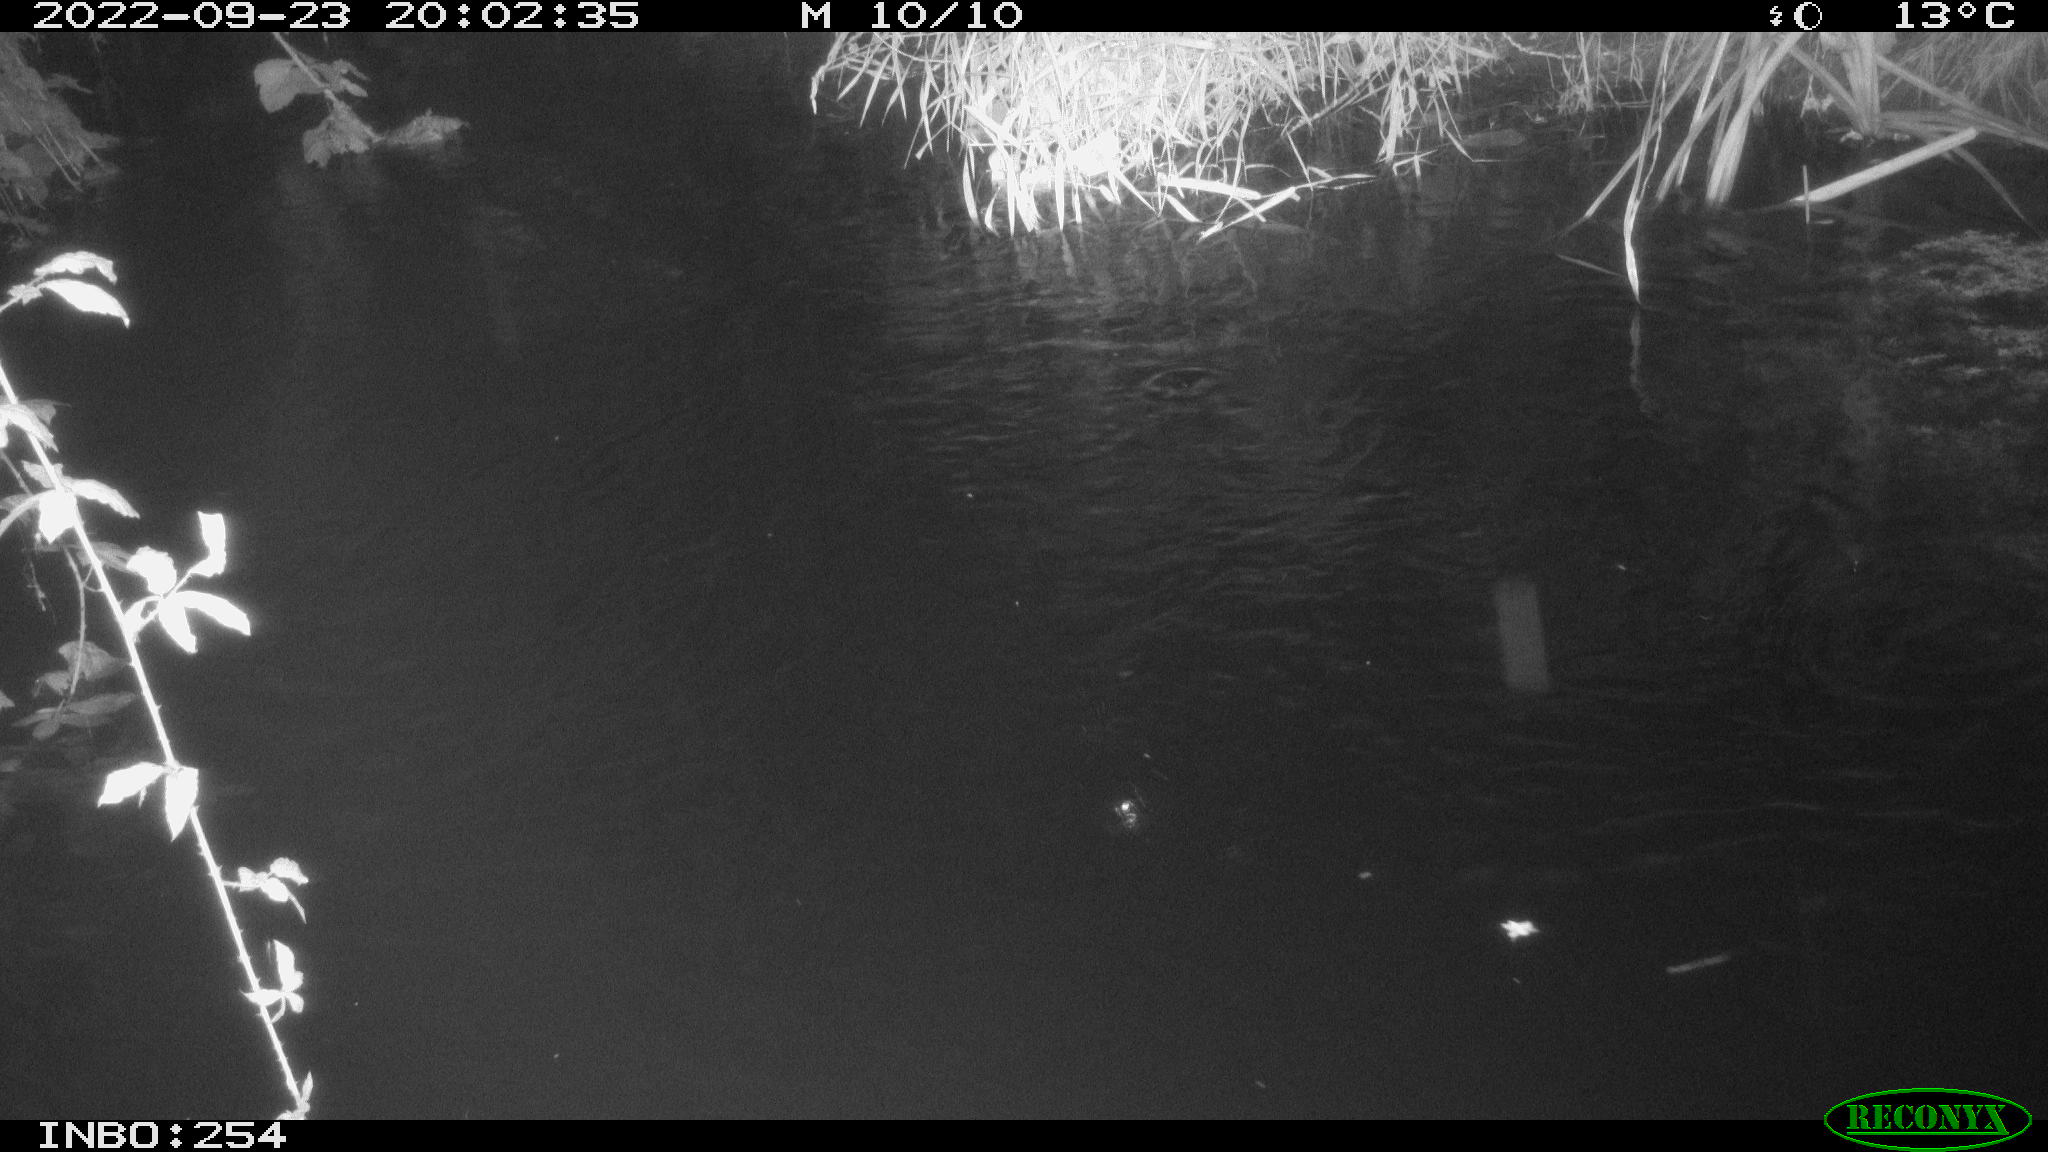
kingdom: Animalia
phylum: Chordata
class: Aves
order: Anseriformes
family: Anatidae
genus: Anas
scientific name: Anas
